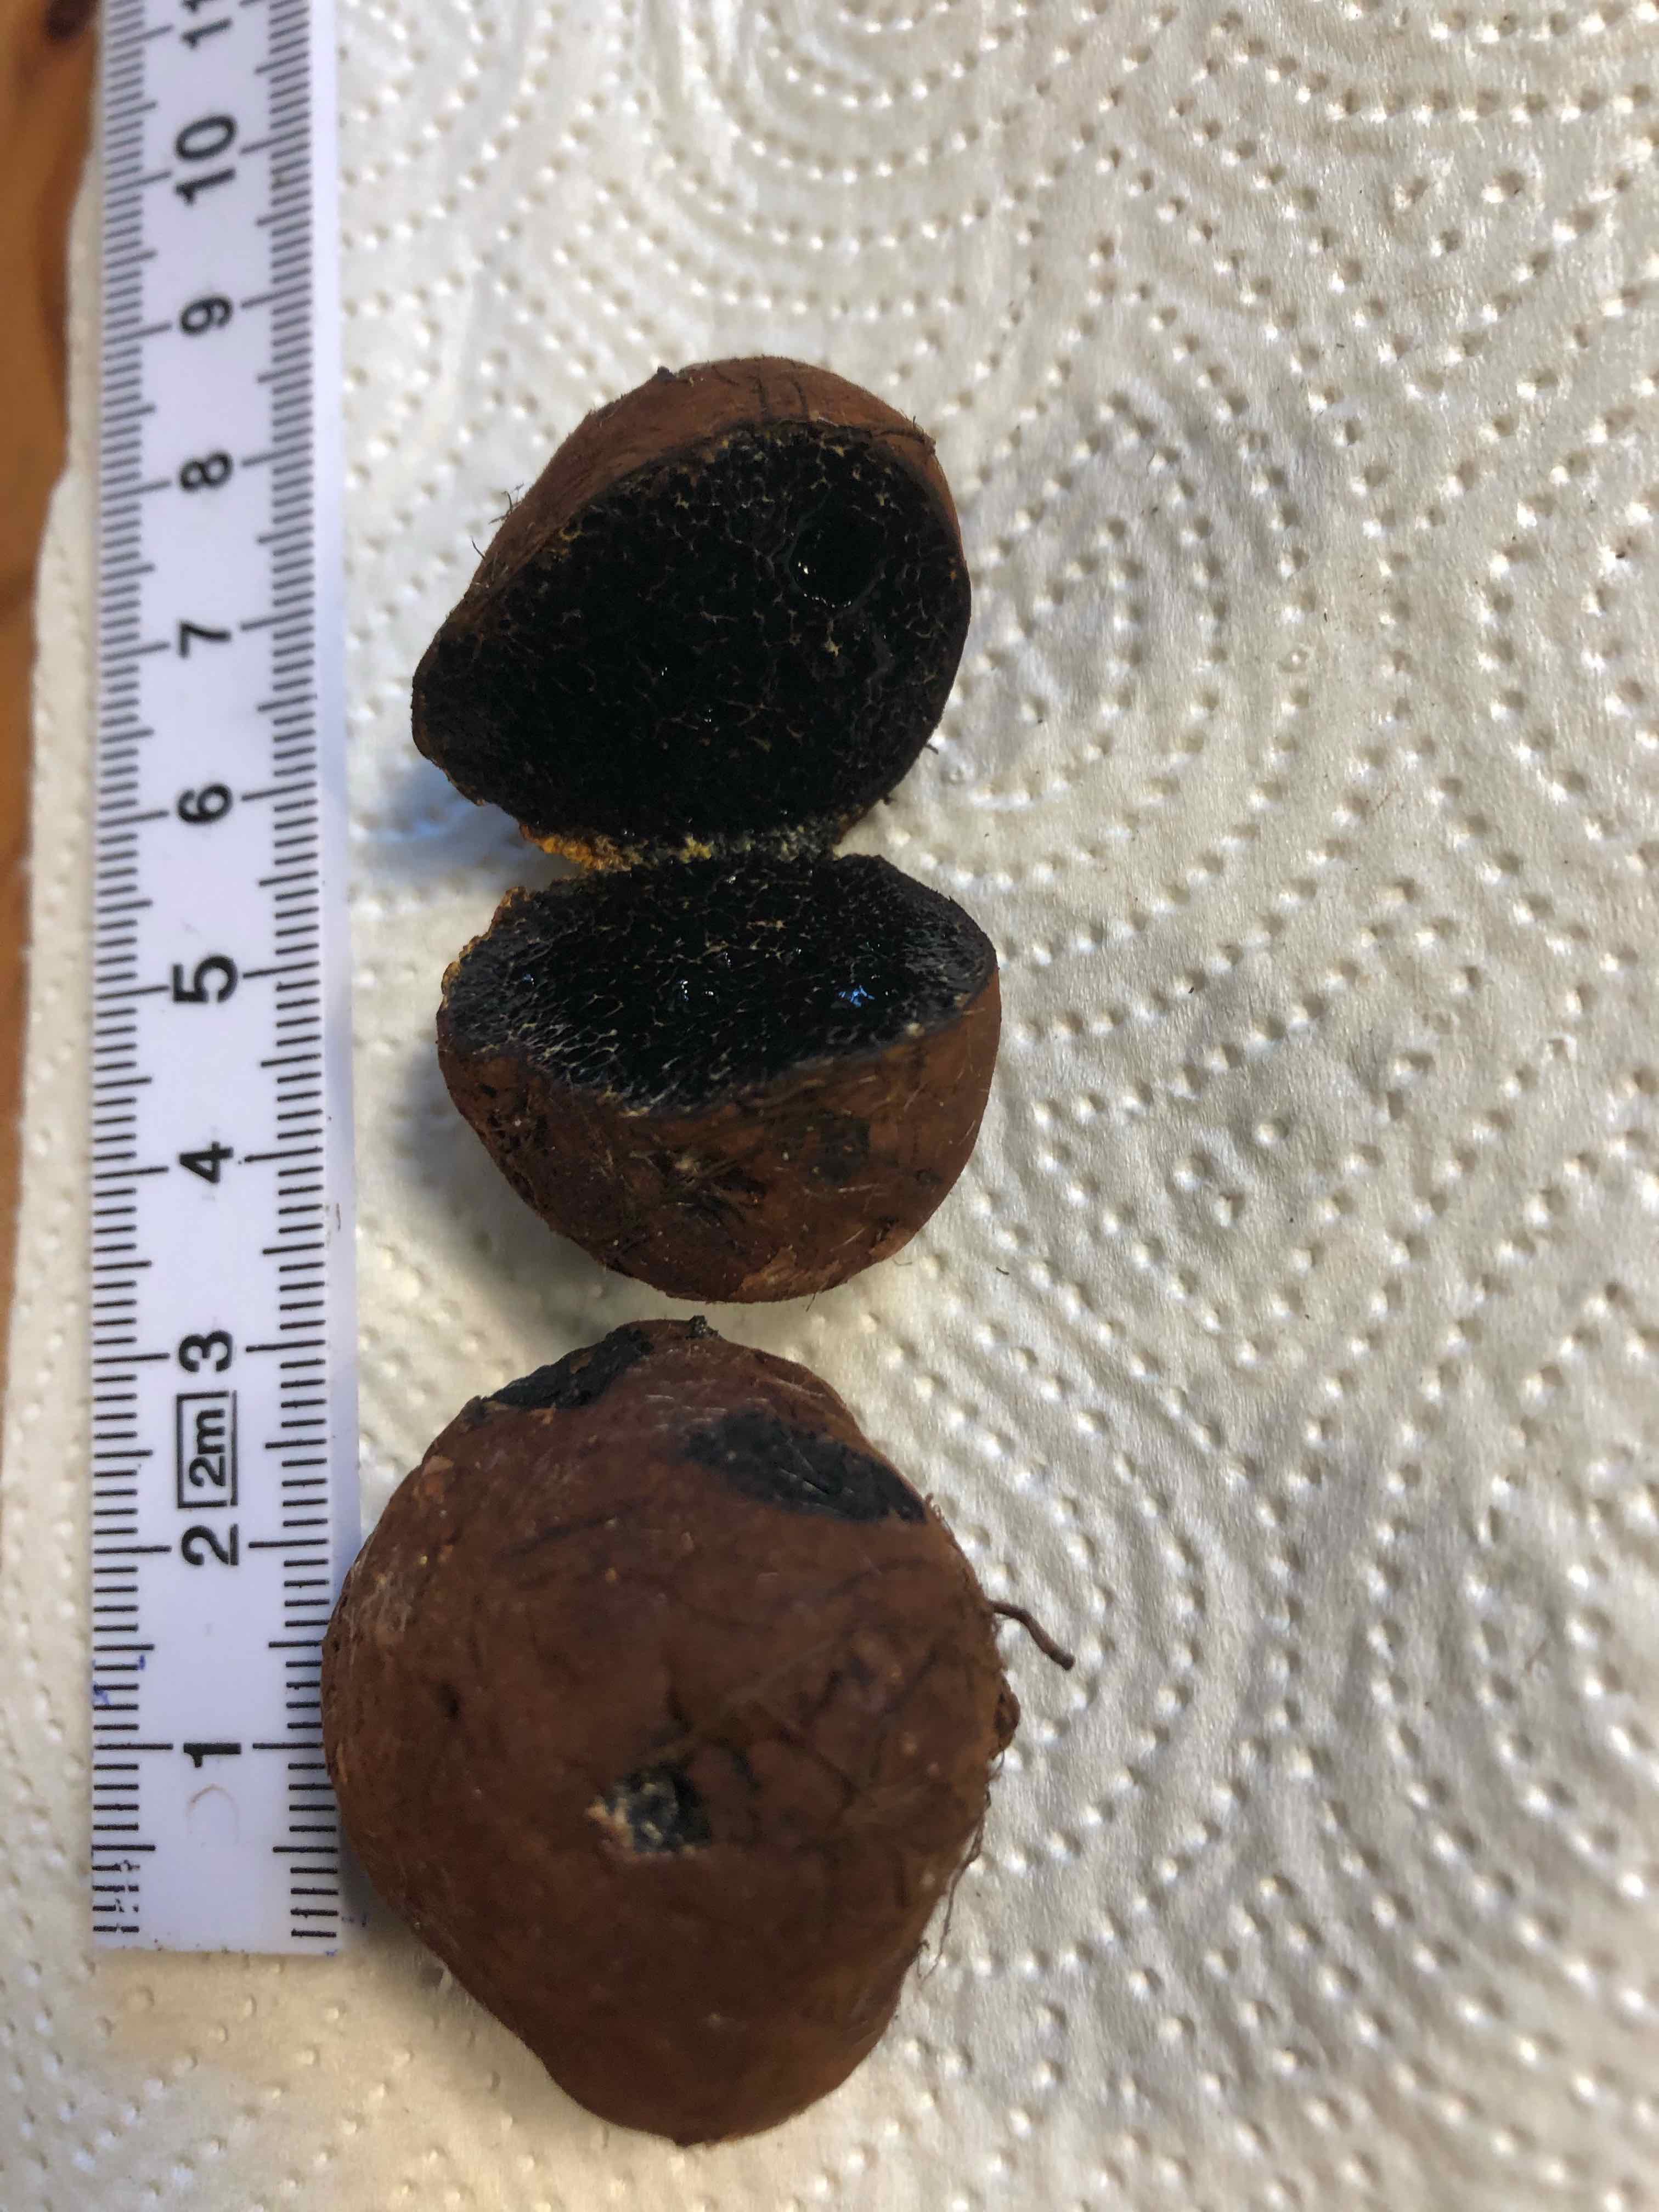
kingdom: Fungi
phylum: Basidiomycota
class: Agaricomycetes
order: Boletales
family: Paxillaceae
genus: Melanogaster
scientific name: Melanogaster
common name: slimtrøffel
